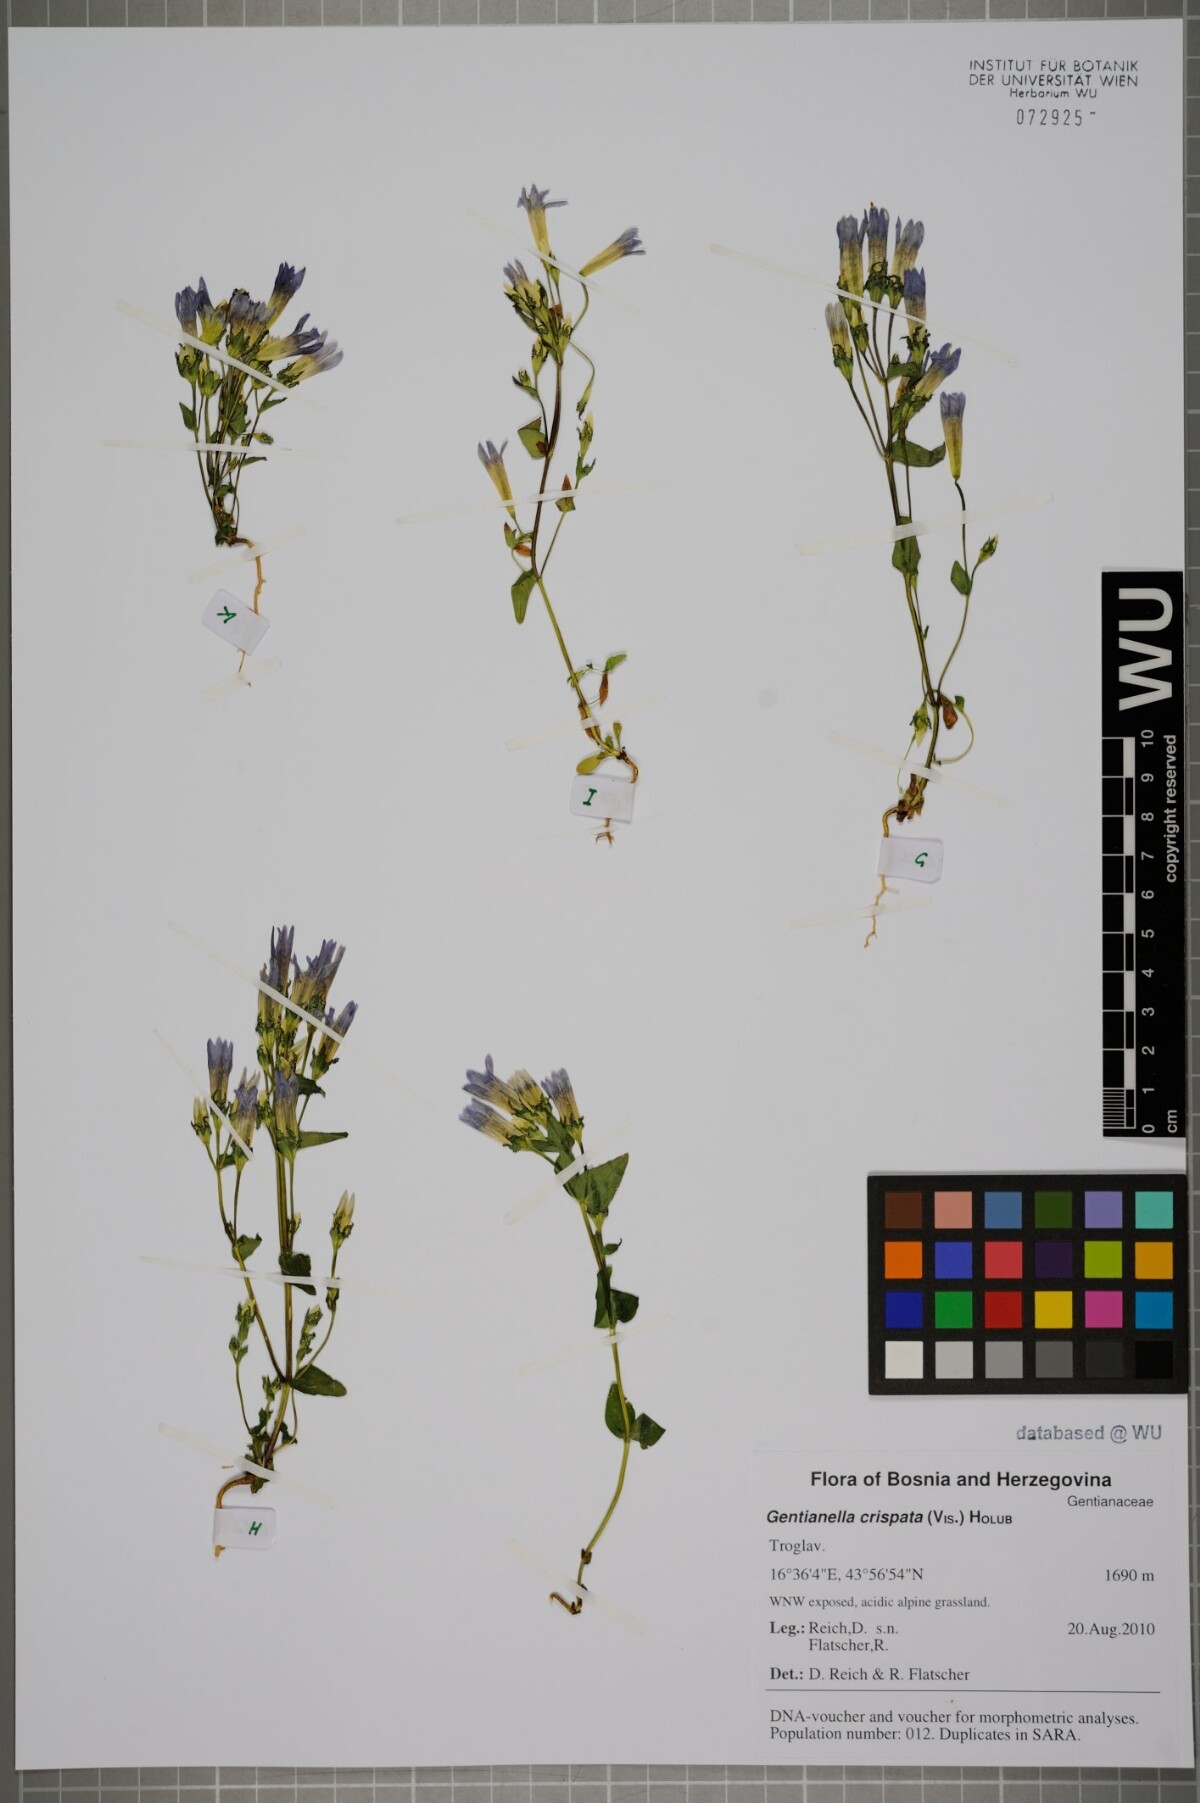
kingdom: Plantae
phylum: Tracheophyta
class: Magnoliopsida
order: Gentianales
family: Gentianaceae
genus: Gentianella
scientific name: Gentianella crispata
